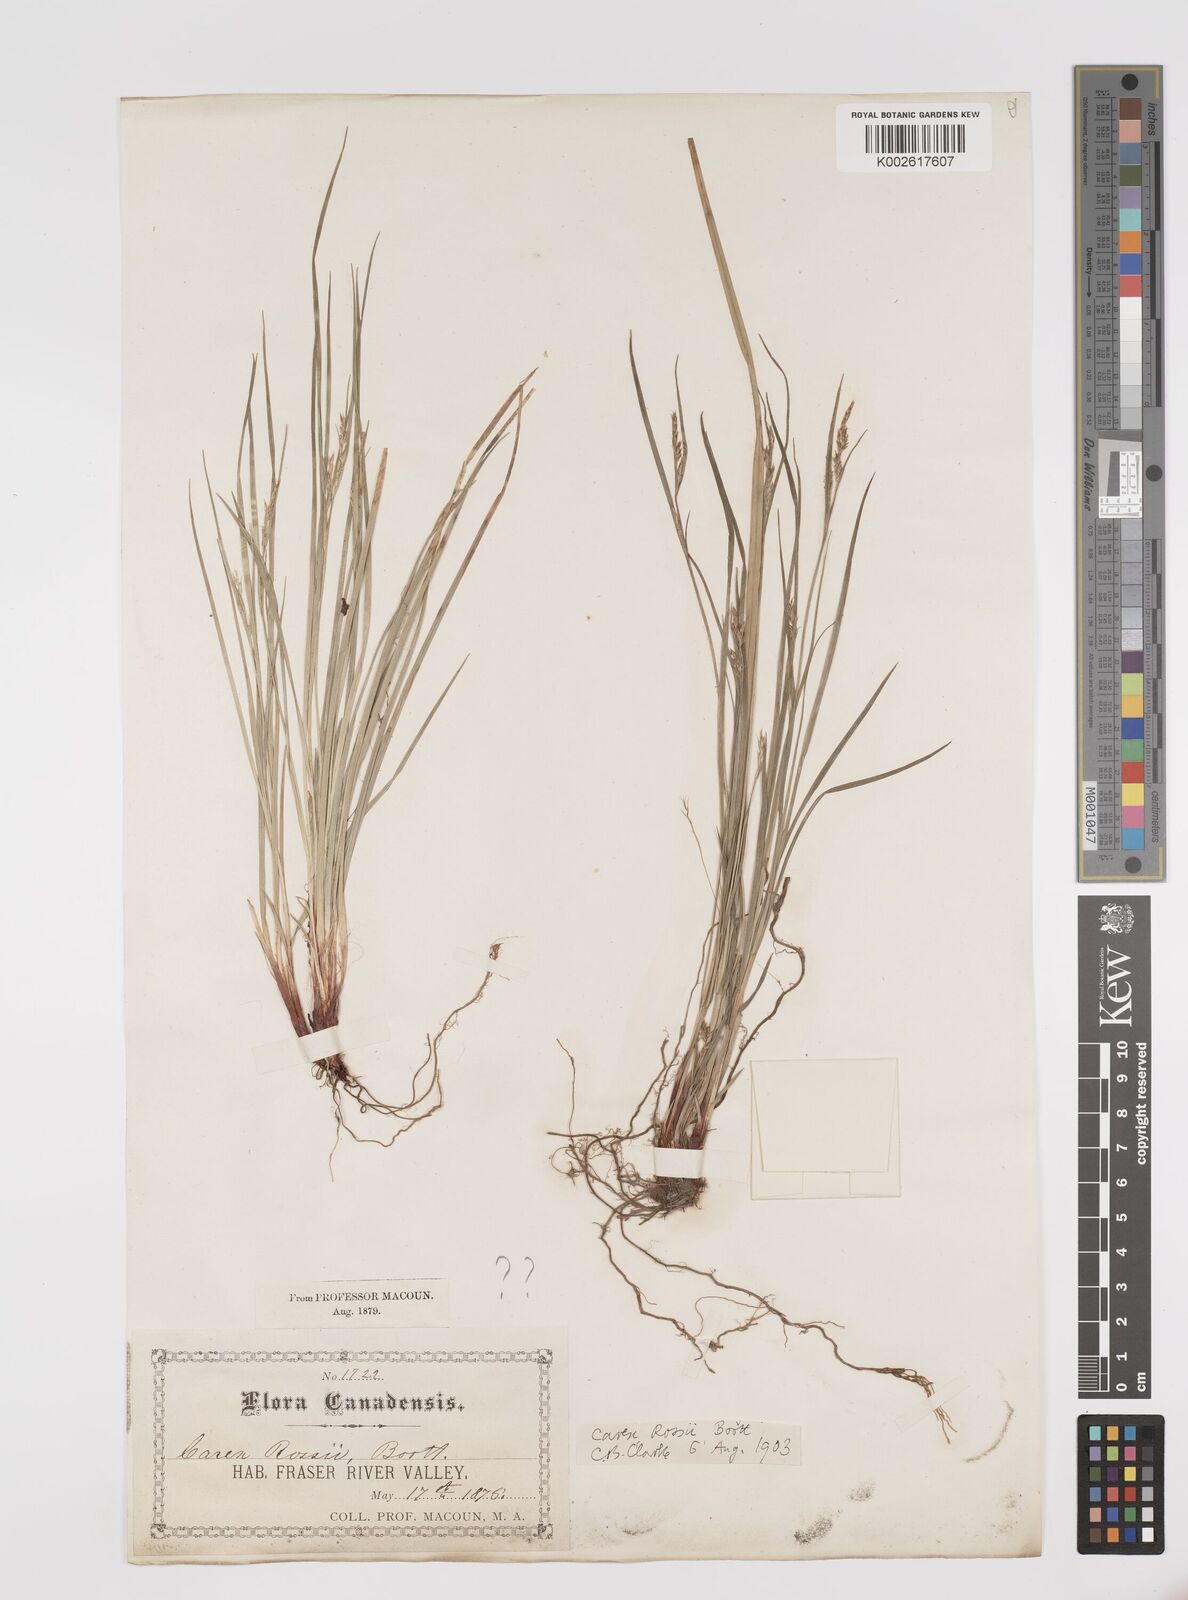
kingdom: Plantae
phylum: Tracheophyta
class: Liliopsida
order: Poales
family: Cyperaceae
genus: Carex
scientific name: Carex rossii
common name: Ross' sedge
